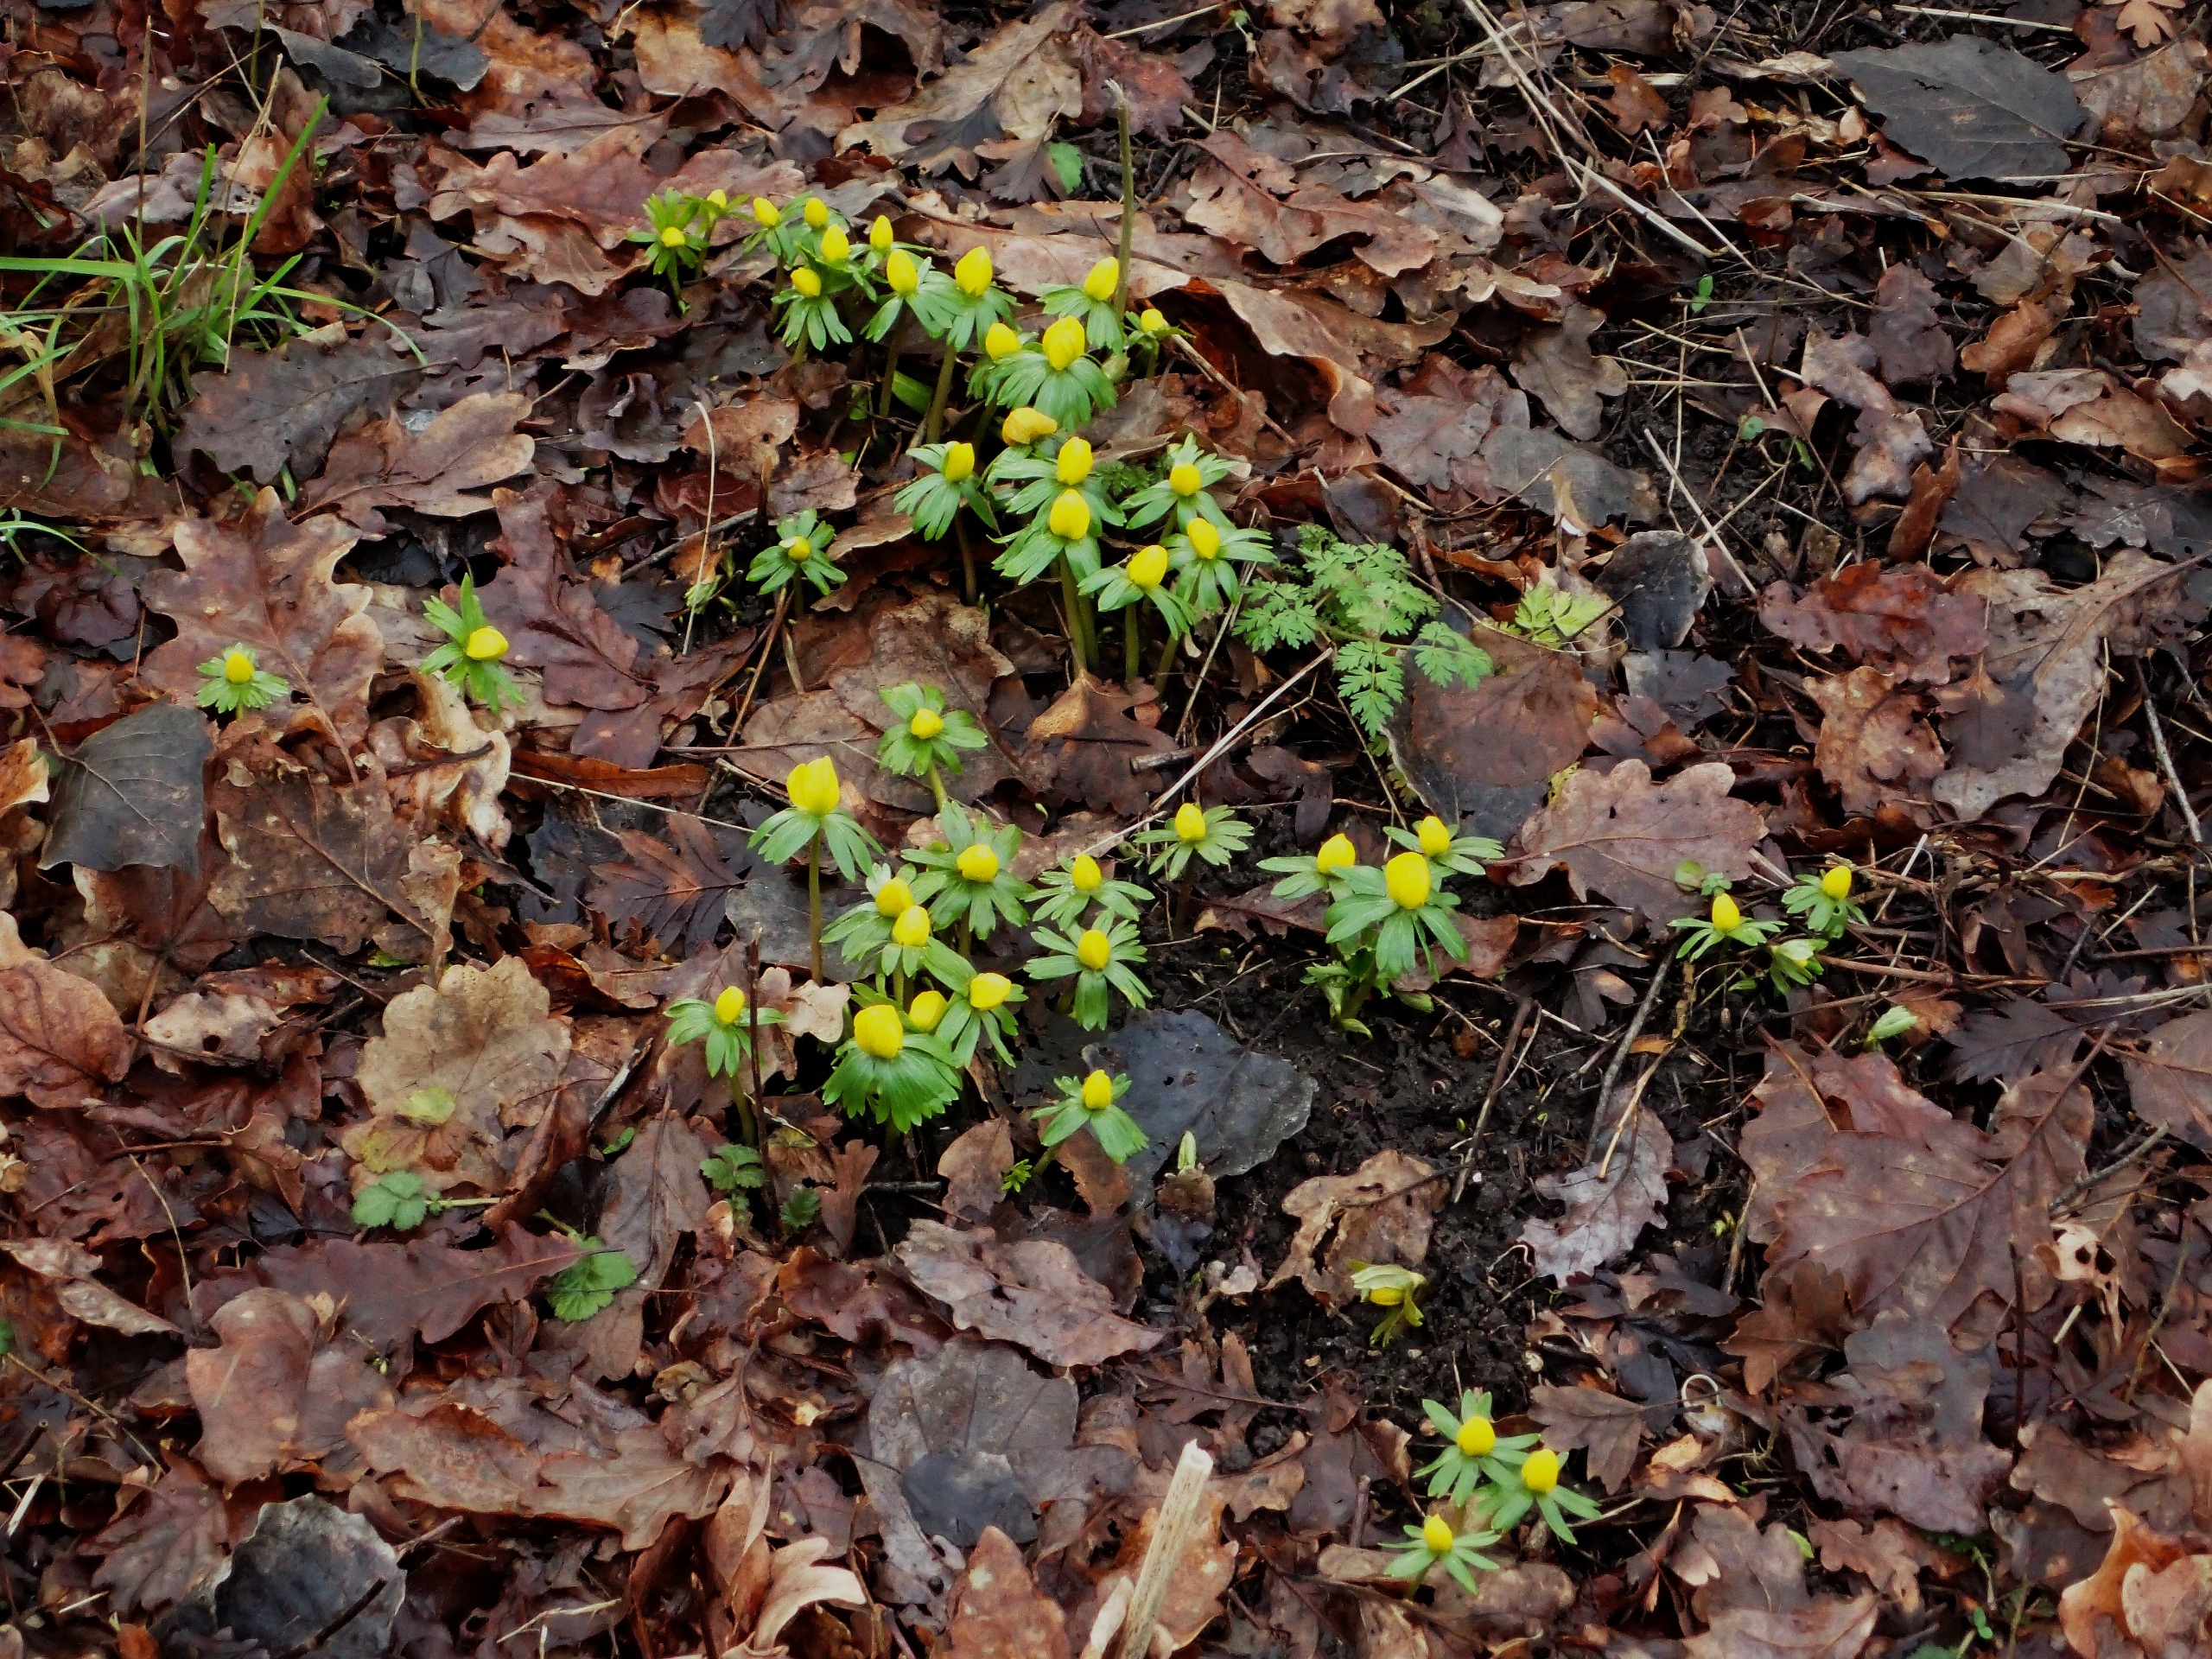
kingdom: Plantae
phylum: Tracheophyta
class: Magnoliopsida
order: Ranunculales
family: Ranunculaceae
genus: Eranthis
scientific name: Eranthis hyemalis
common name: Erantis
